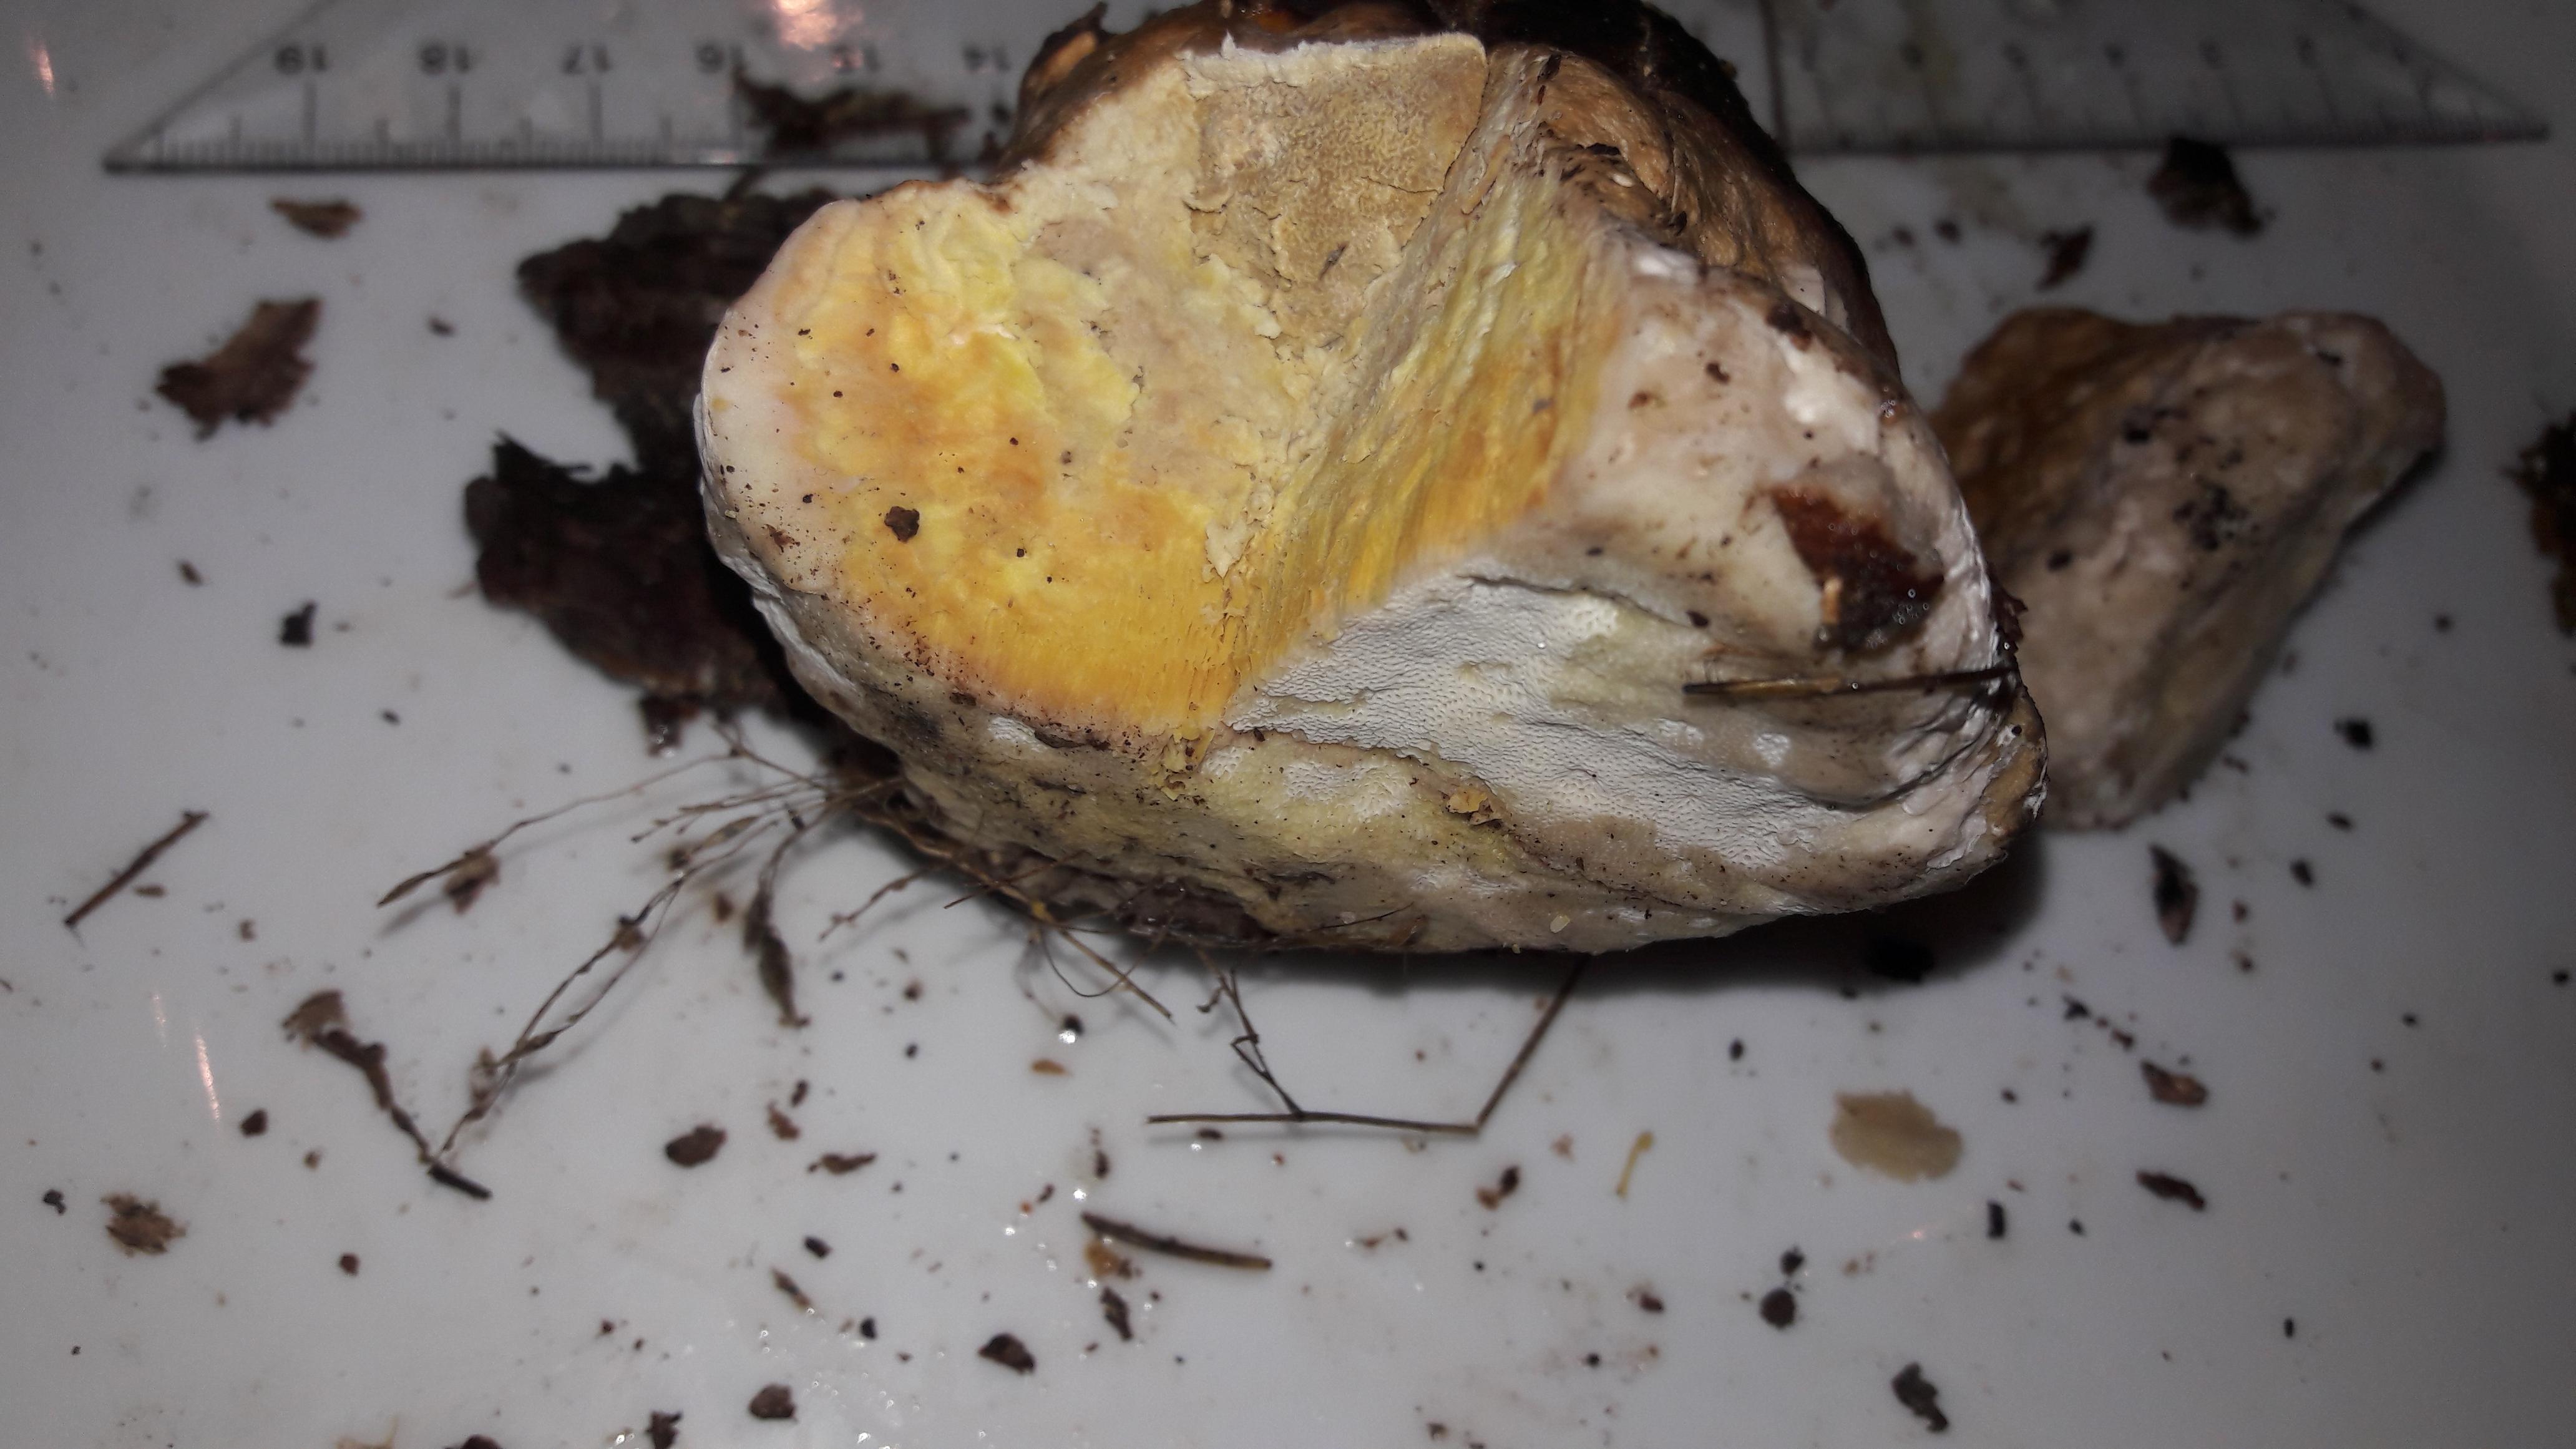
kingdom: Fungi
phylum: Basidiomycota
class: Agaricomycetes
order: Polyporales
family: Fomitopsidaceae
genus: Fomitopsis
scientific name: Fomitopsis pinicola
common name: randbæltet hovporesvamp
